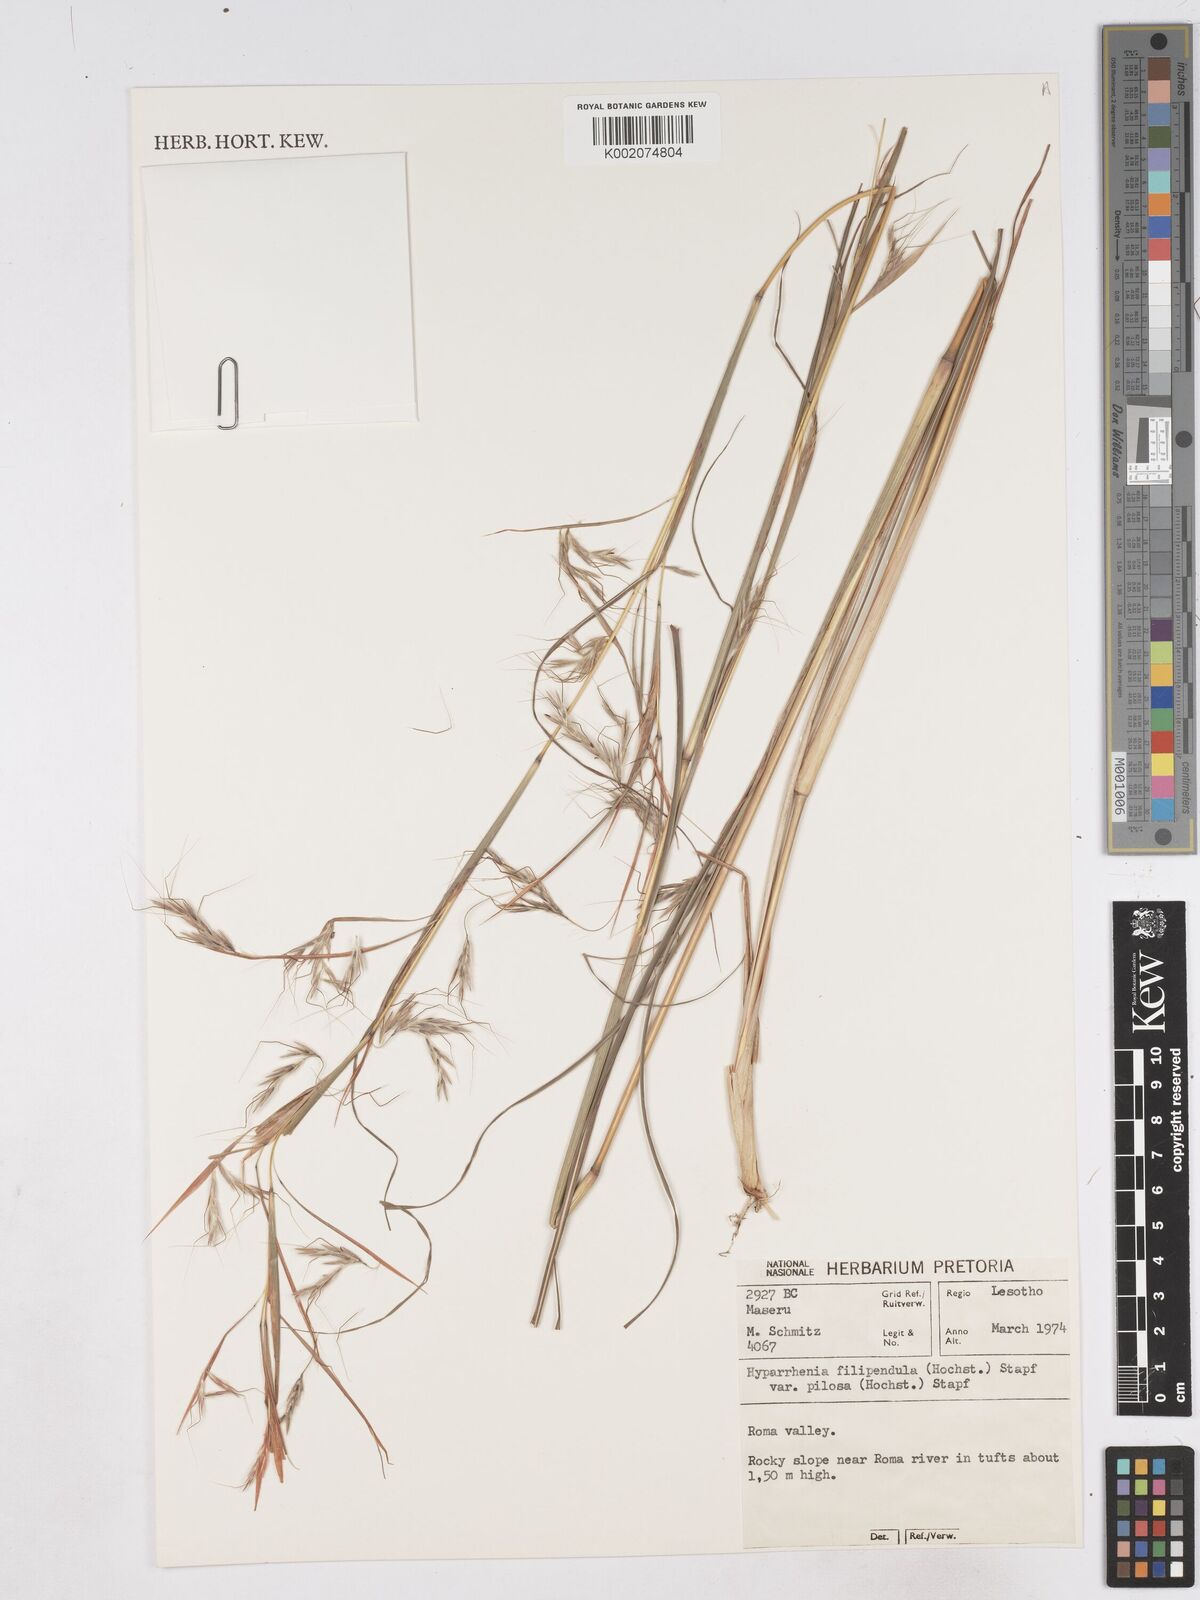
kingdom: Plantae
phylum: Tracheophyta
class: Liliopsida
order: Poales
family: Poaceae
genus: Hyparrhenia
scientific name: Hyparrhenia filipendula
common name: Tambookie grass
